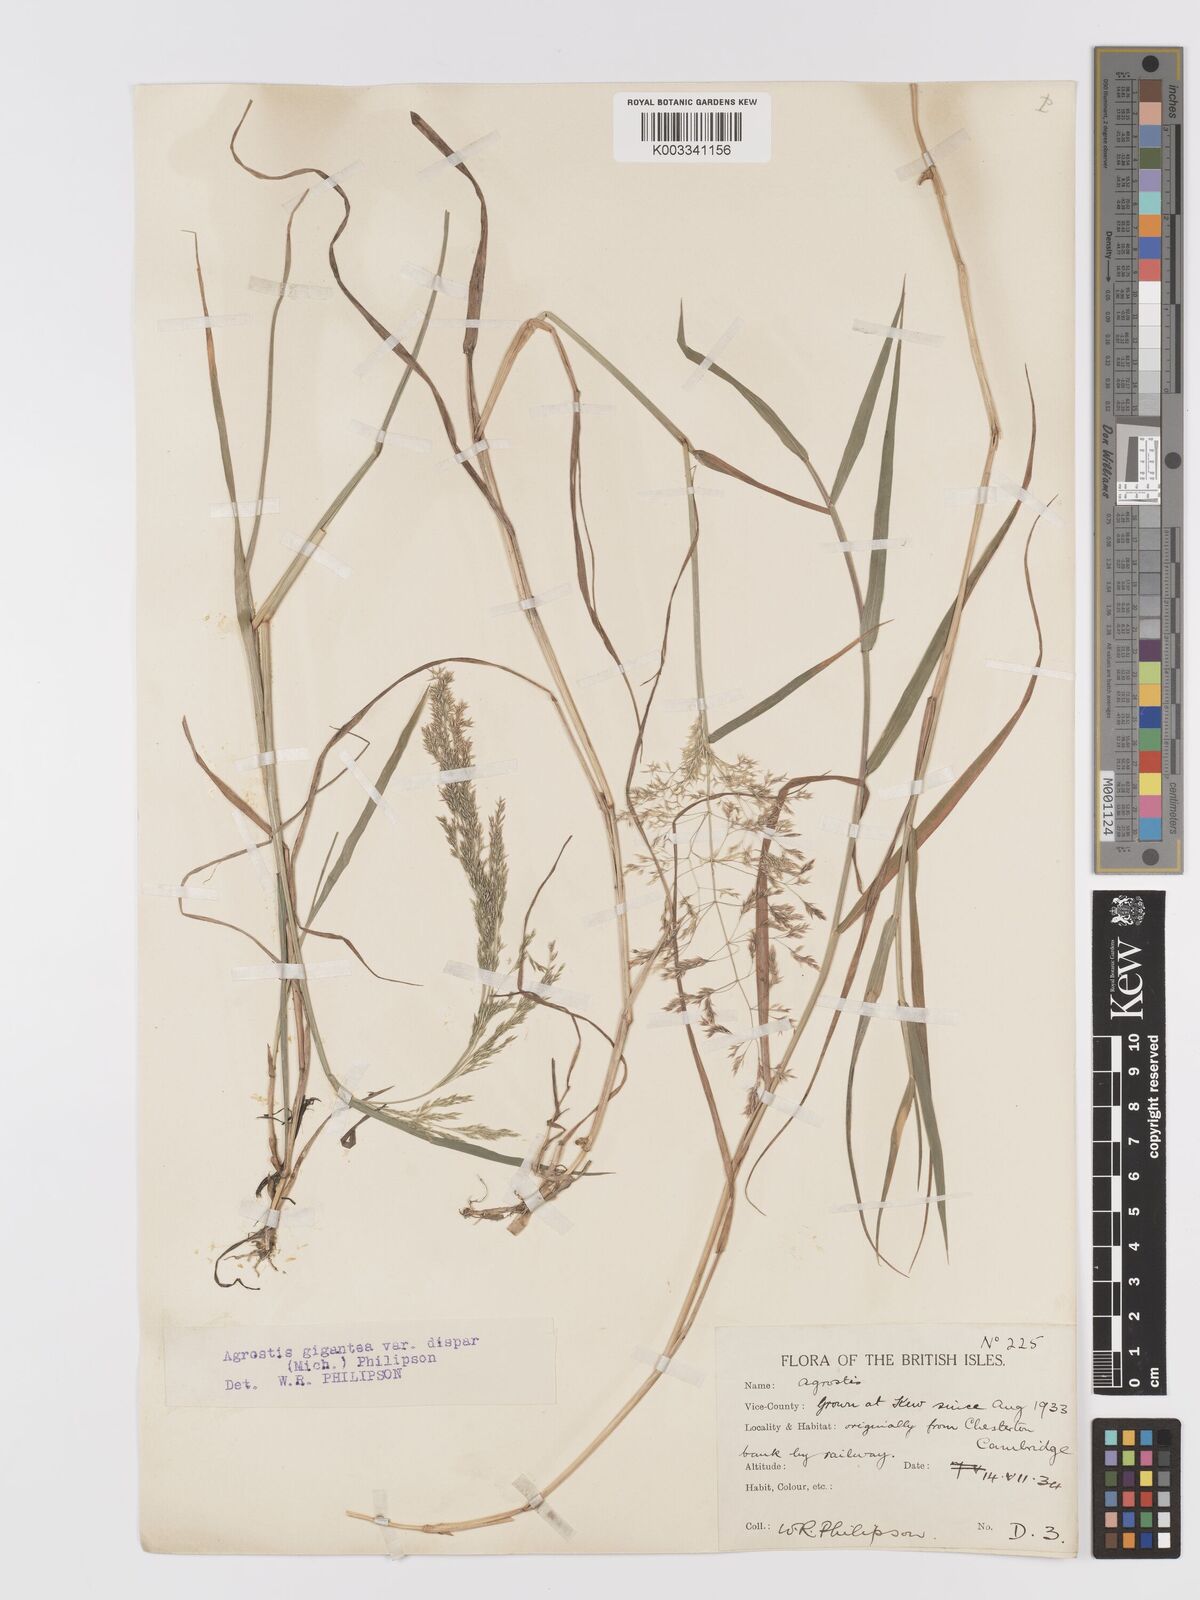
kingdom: Plantae
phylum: Tracheophyta
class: Liliopsida
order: Poales
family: Poaceae
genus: Agrostis
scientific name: Agrostis gigantea
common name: Black bent
